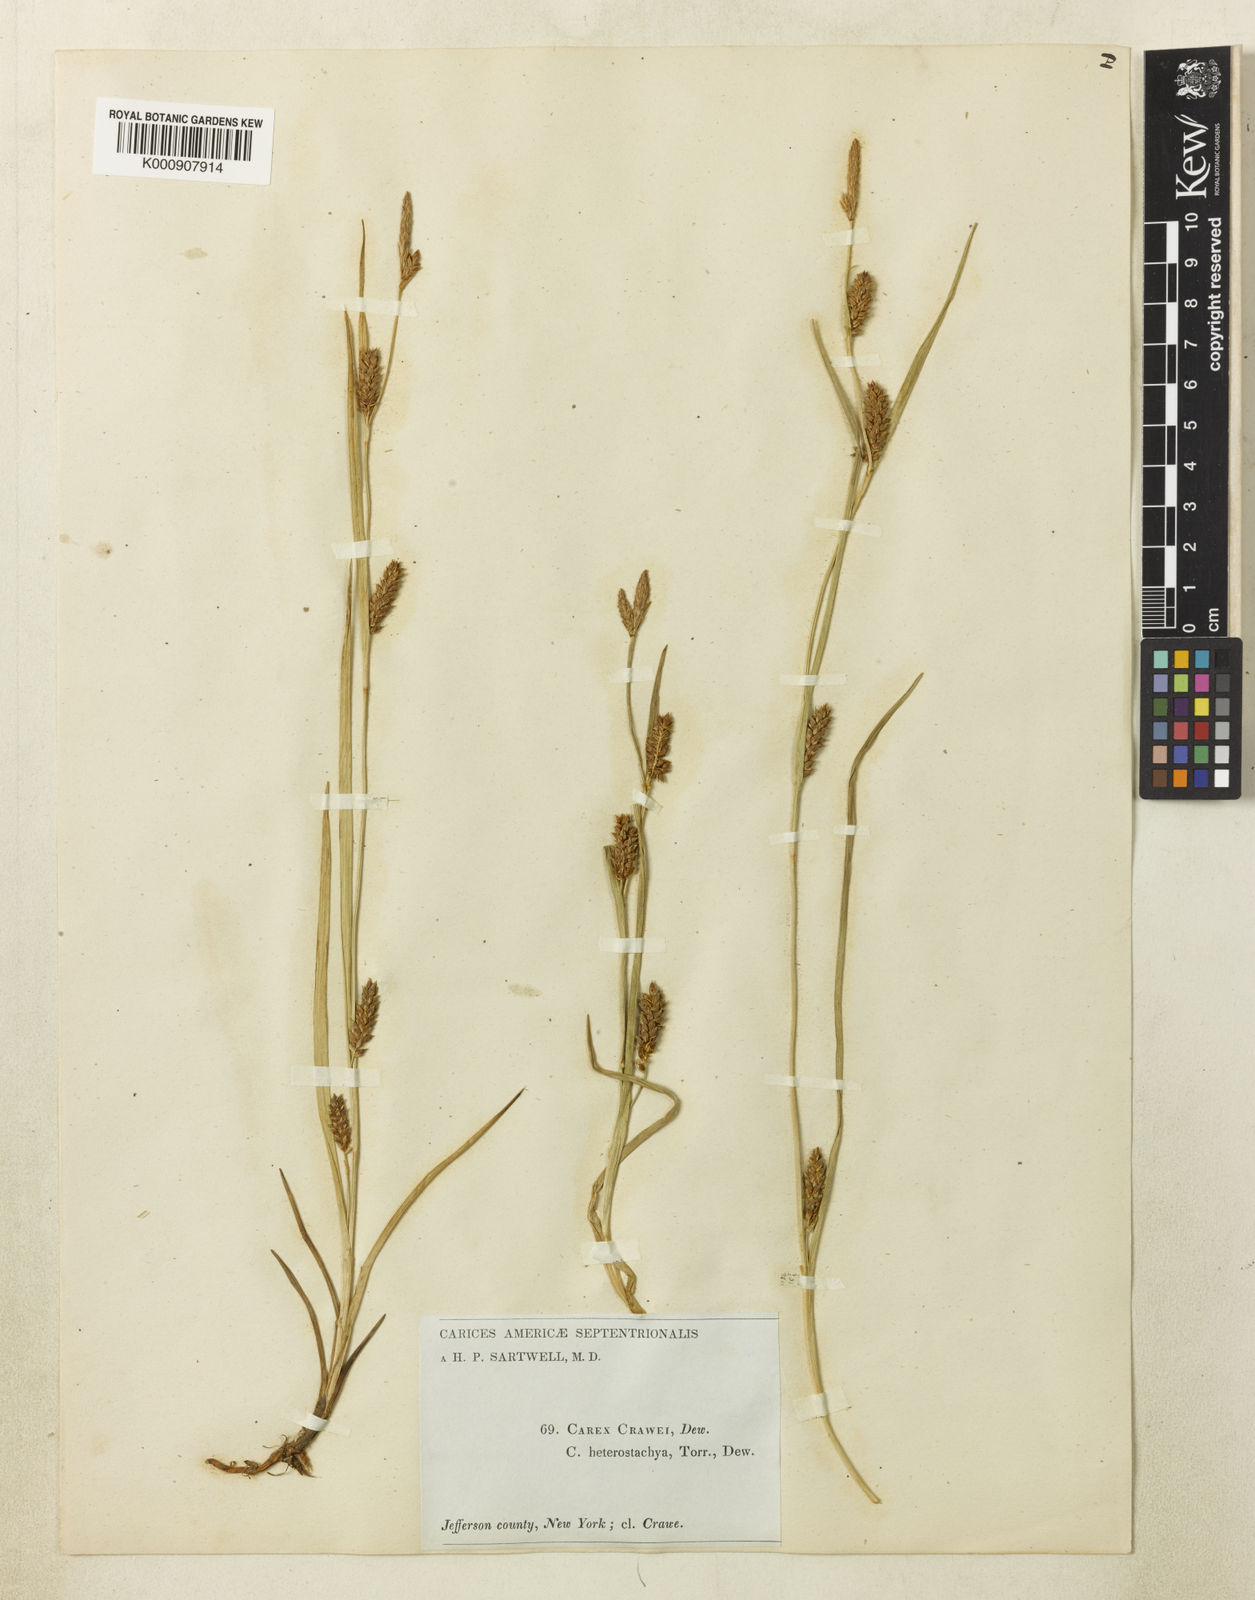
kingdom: Plantae
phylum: Tracheophyta
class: Liliopsida
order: Poales
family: Cyperaceae
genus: Carex
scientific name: Carex crawei
